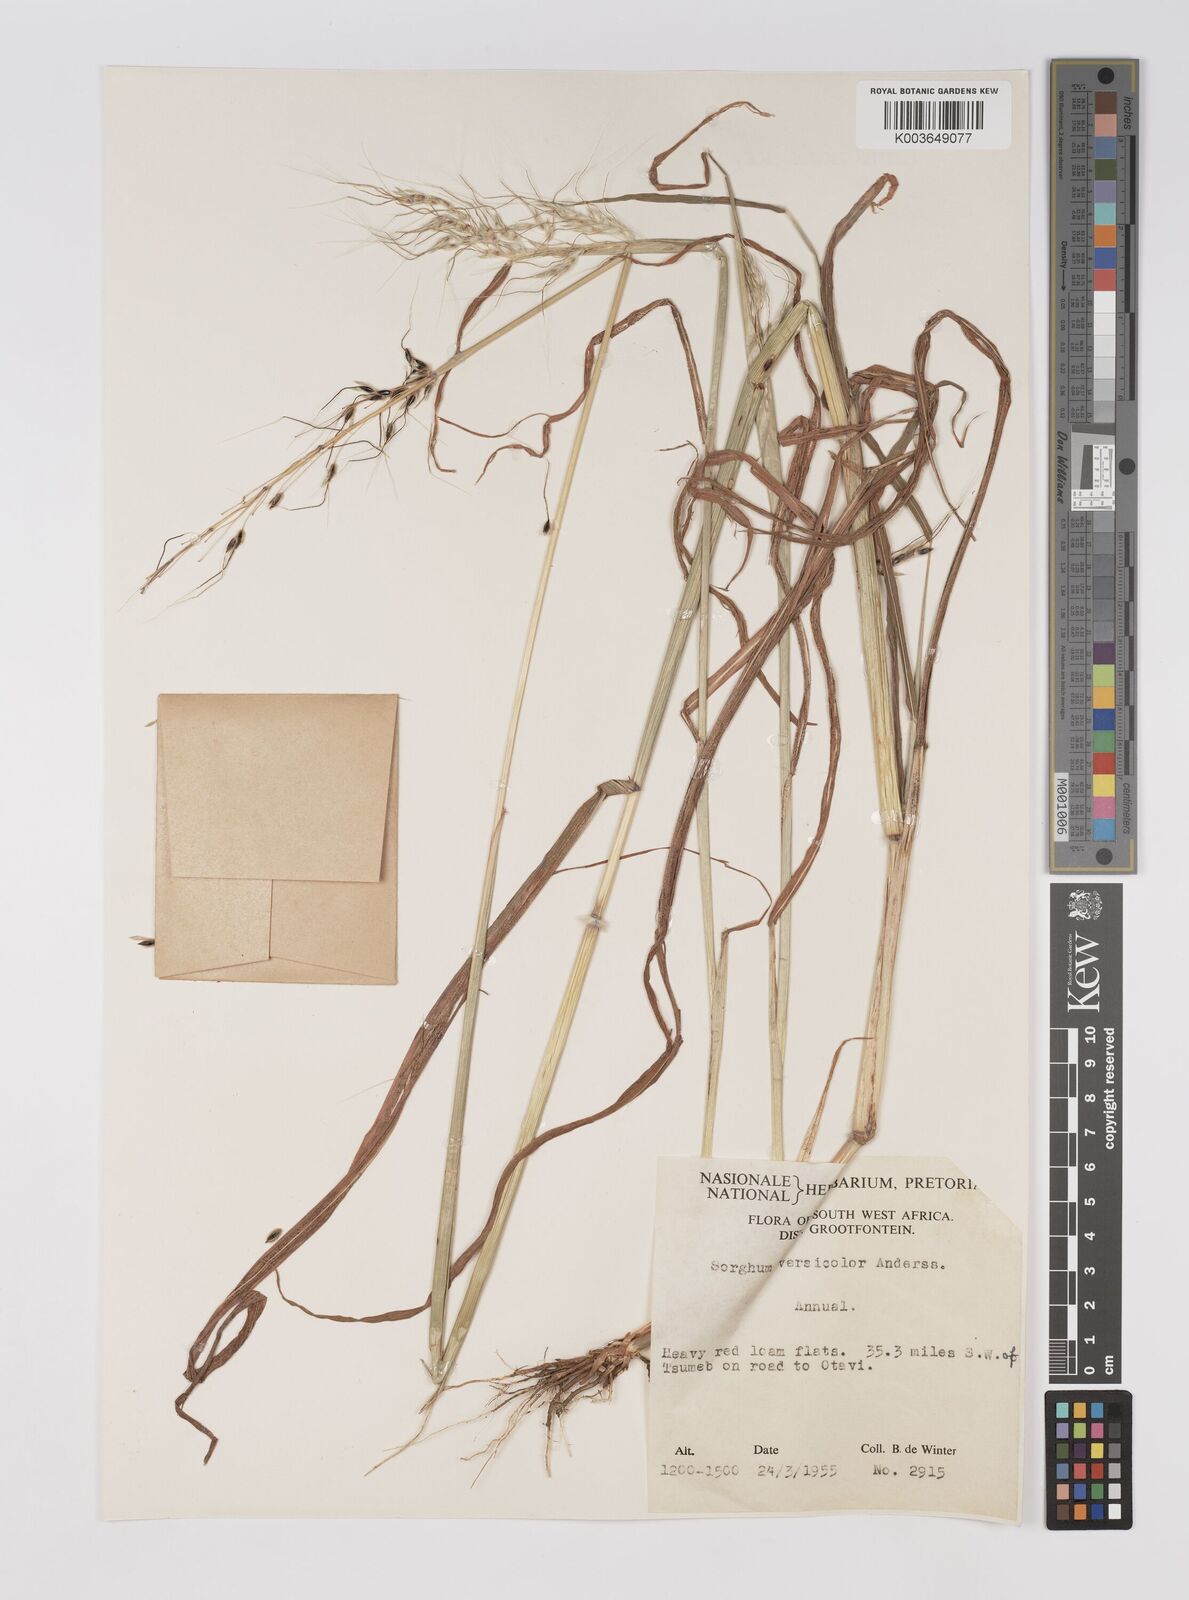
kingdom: Plantae
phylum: Tracheophyta
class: Liliopsida
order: Poales
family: Poaceae
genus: Sarga
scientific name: Sarga versicolor
